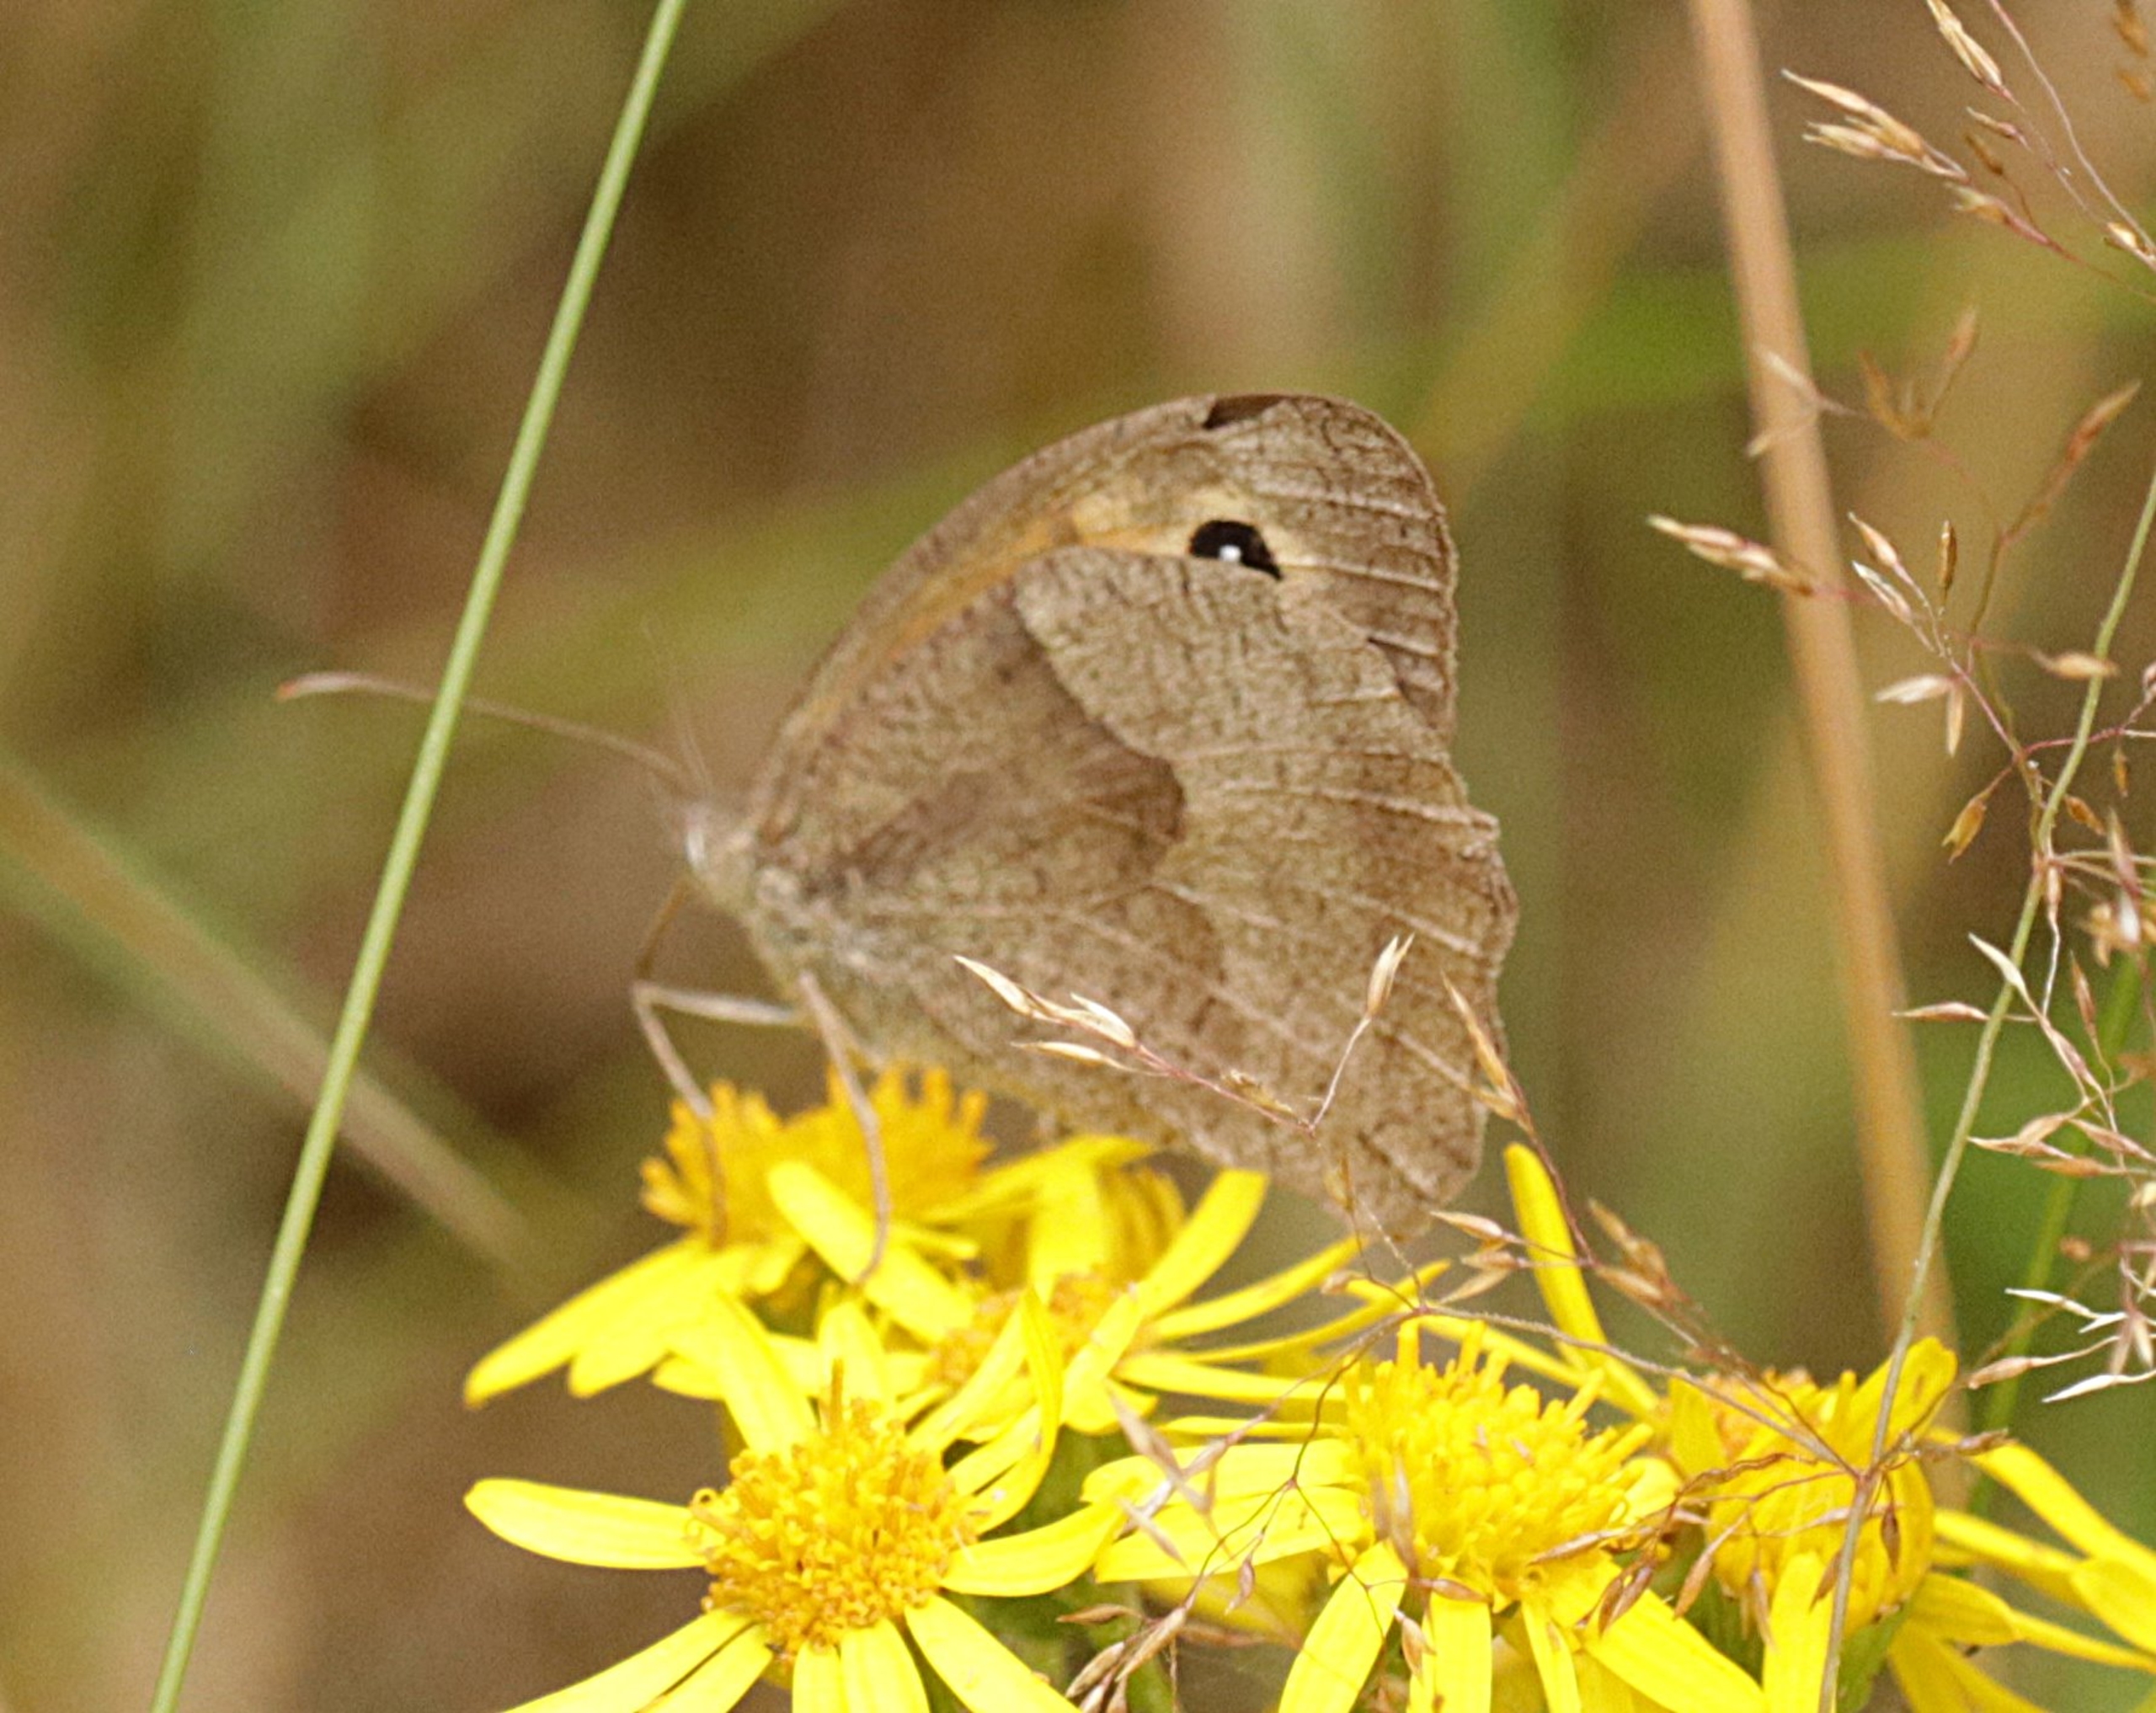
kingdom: Animalia
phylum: Arthropoda
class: Insecta
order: Lepidoptera
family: Nymphalidae
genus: Maniola
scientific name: Maniola jurtina
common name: Græsrandøje
